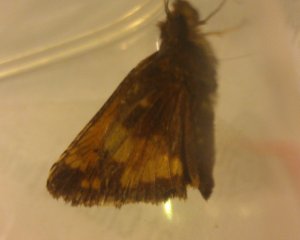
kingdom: Animalia
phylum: Arthropoda
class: Insecta
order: Lepidoptera
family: Hesperiidae
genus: Lon
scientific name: Lon hobomok
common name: Hobomok Skipper
